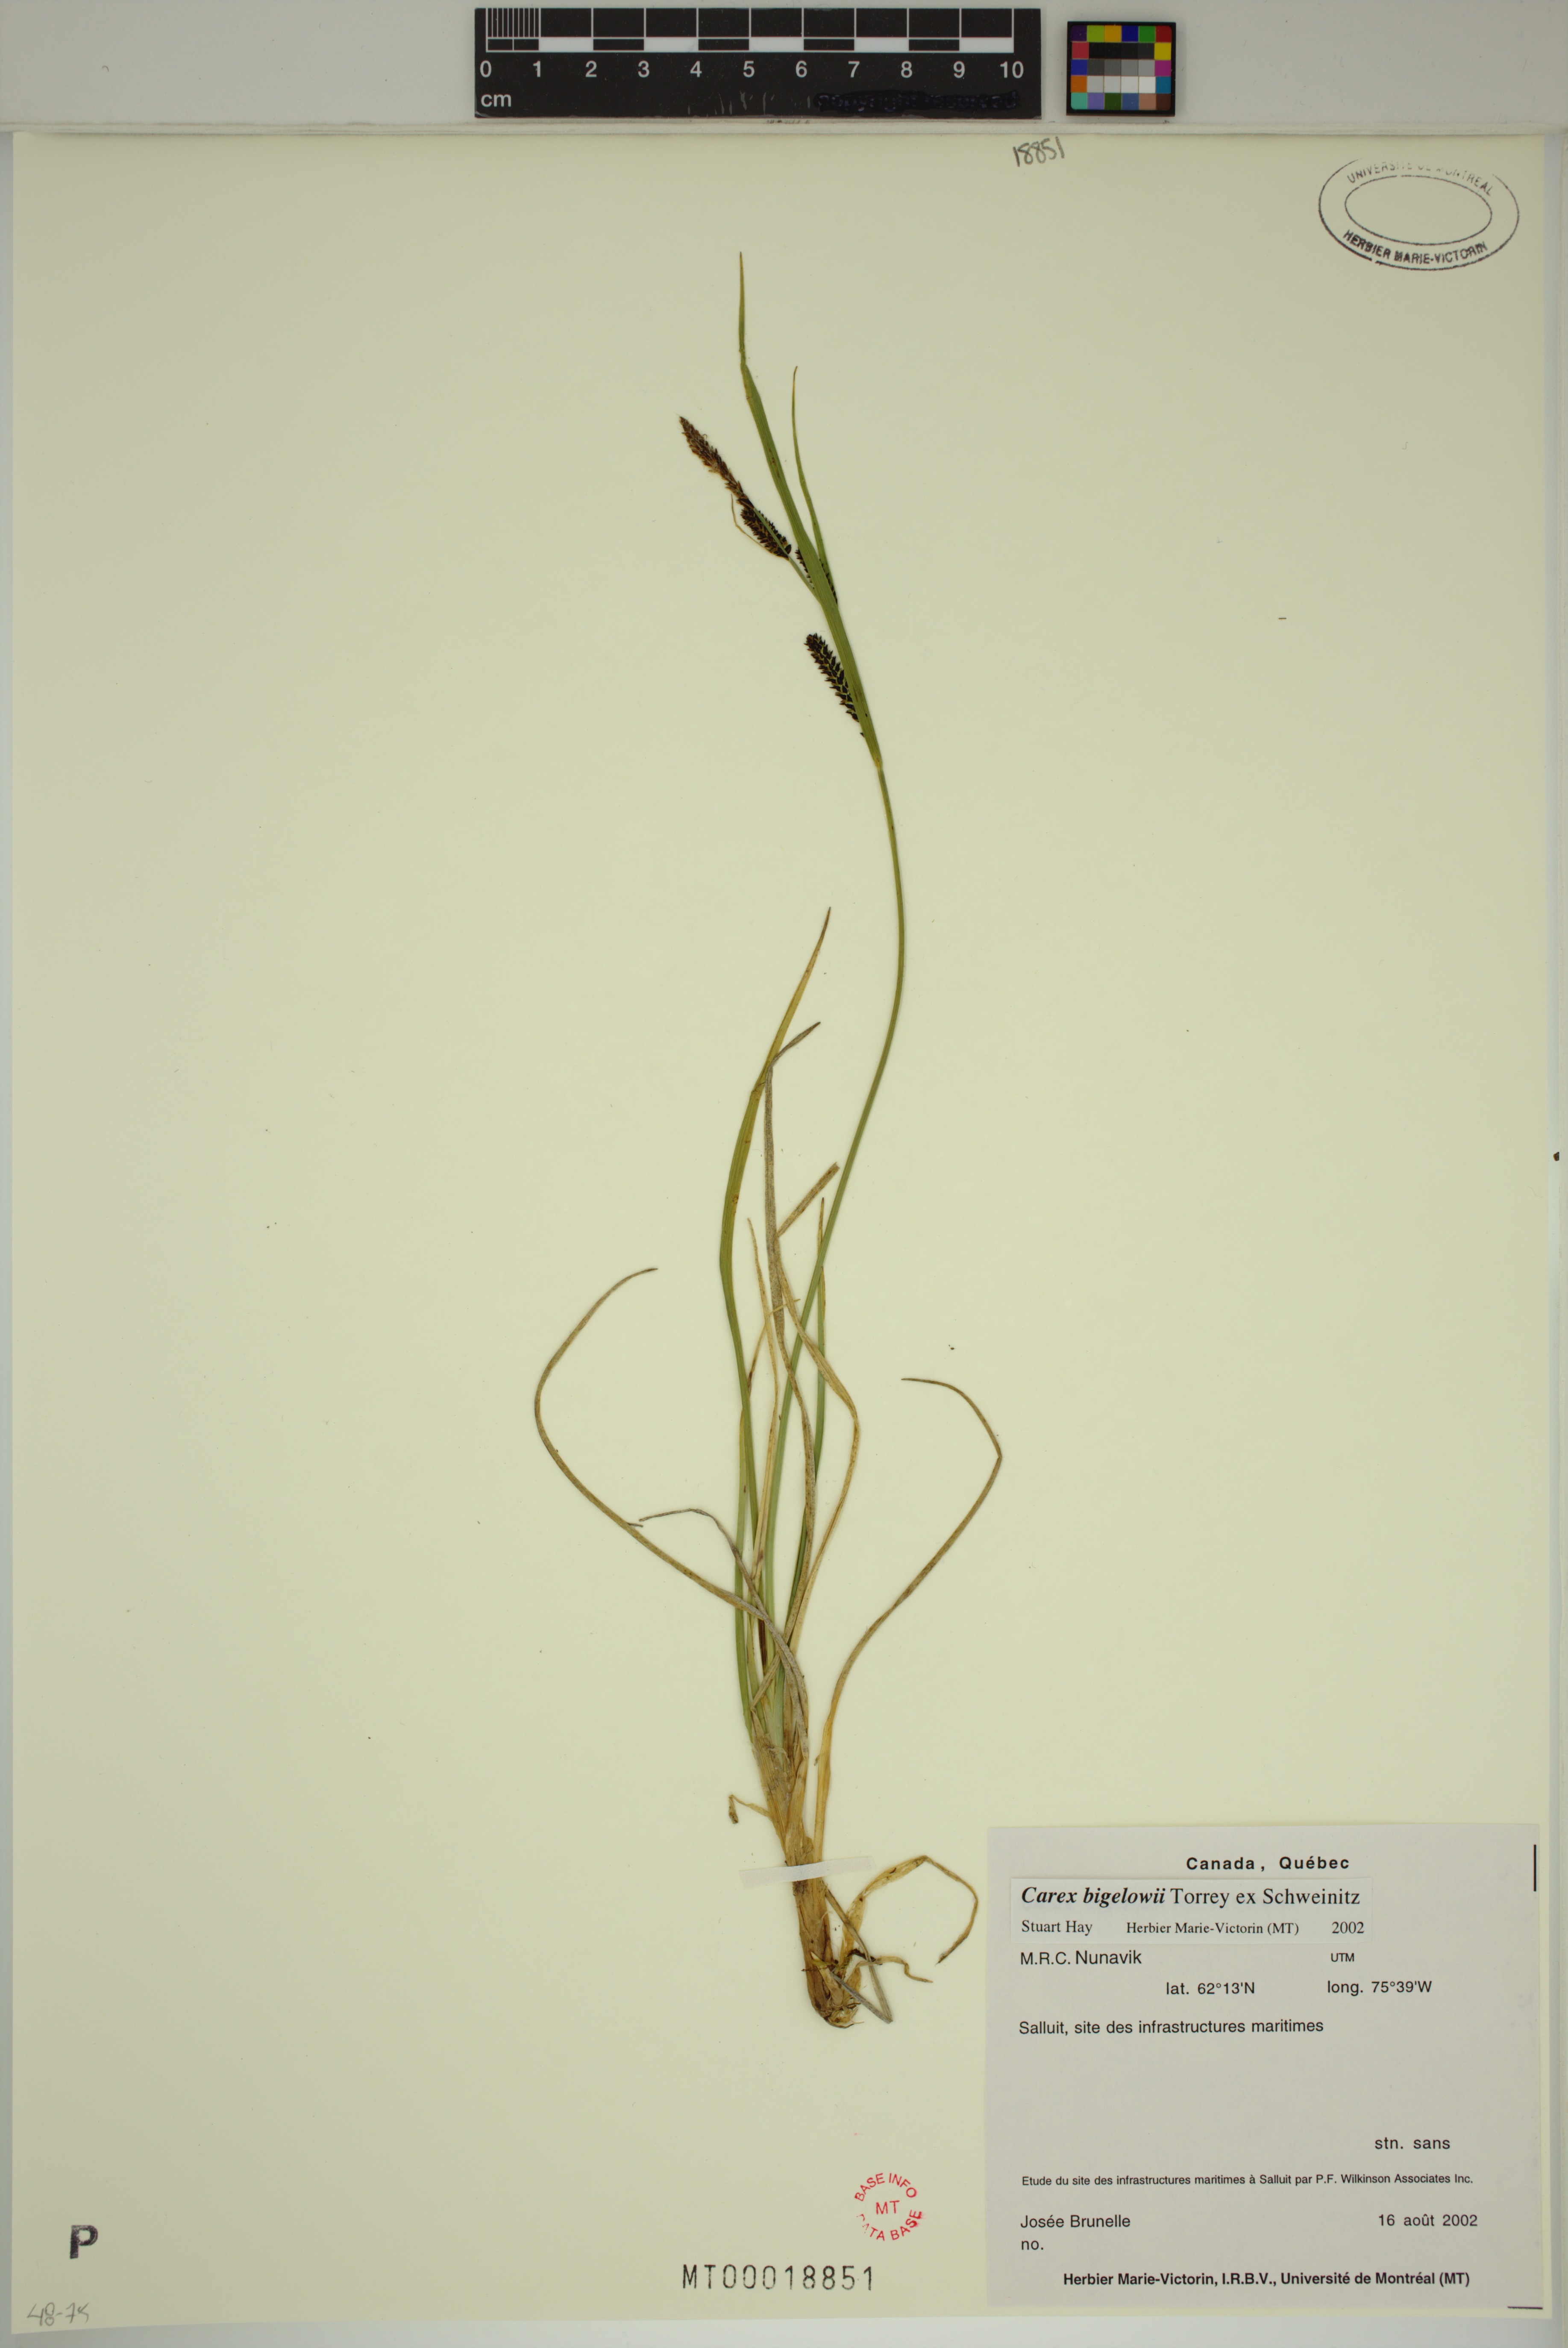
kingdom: Plantae
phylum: Tracheophyta
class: Liliopsida
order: Poales
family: Cyperaceae
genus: Carex
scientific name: Carex bigelowii
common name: Stiff sedge
